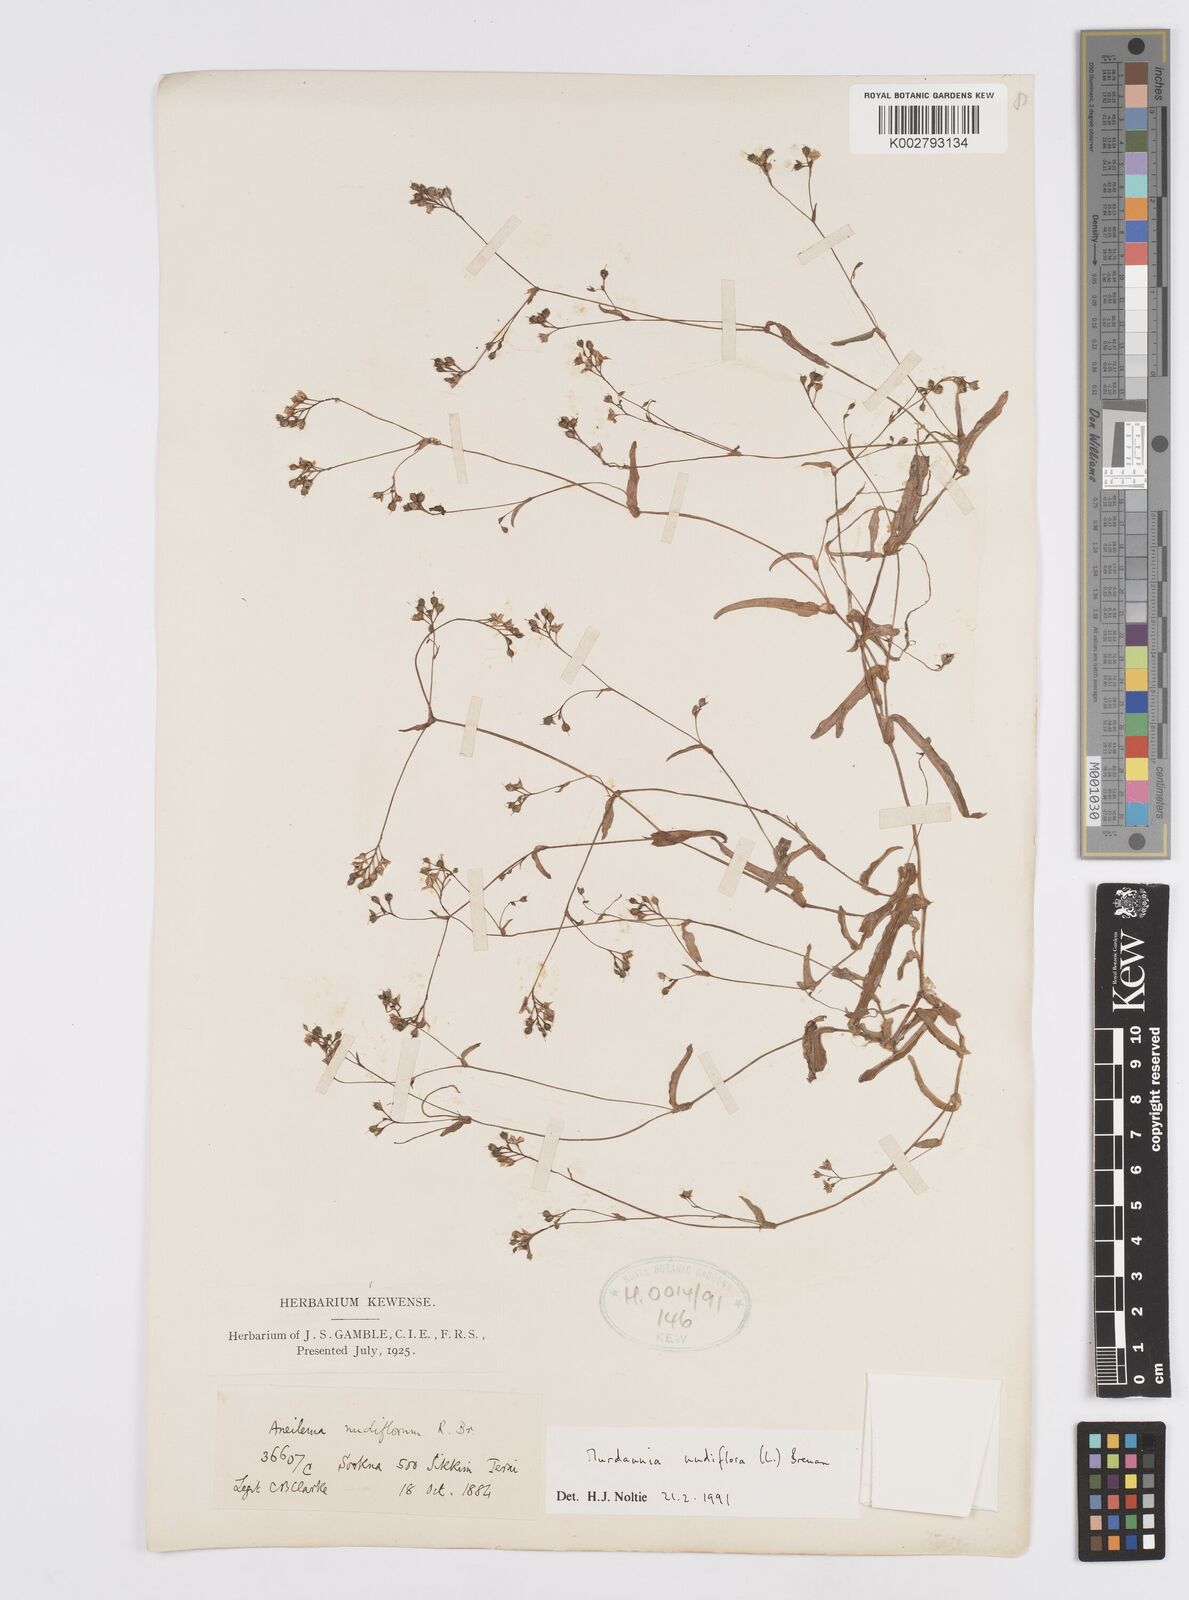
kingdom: Plantae
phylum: Tracheophyta
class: Liliopsida
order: Commelinales
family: Commelinaceae
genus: Murdannia
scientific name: Murdannia nudiflora
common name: Nakedstem dewflower
